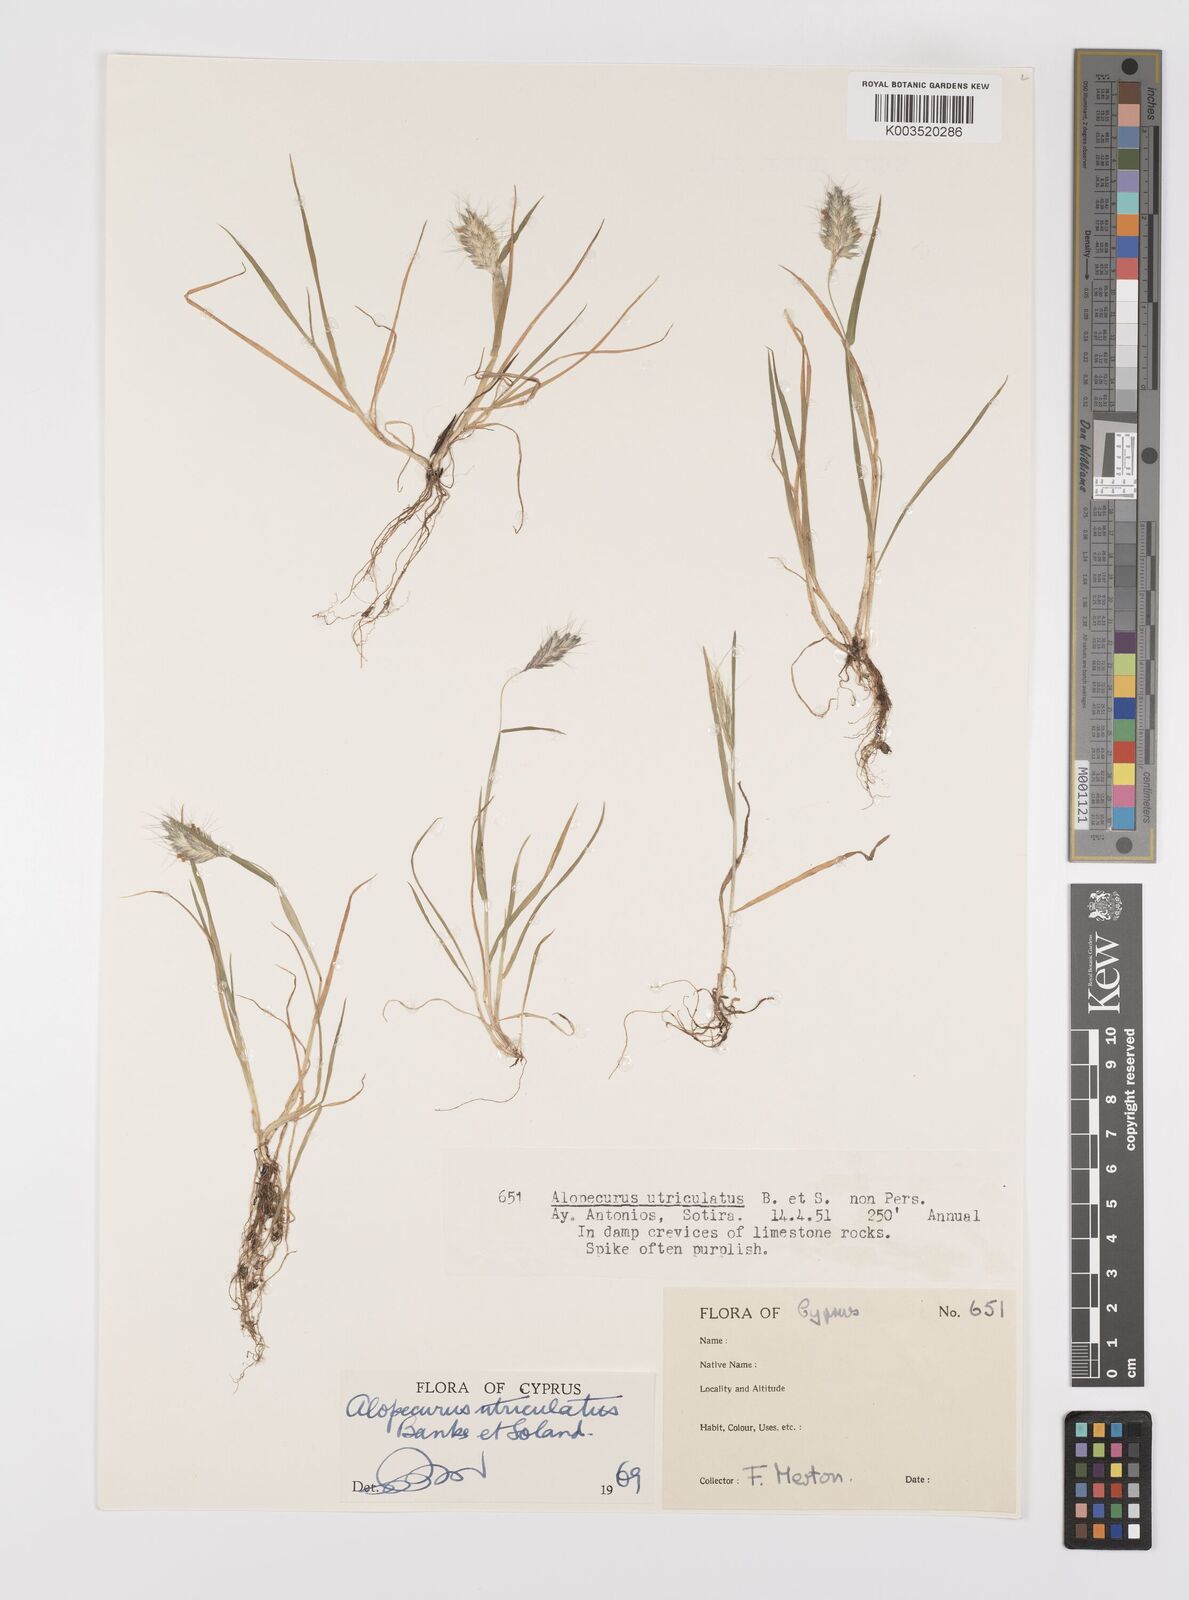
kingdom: Plantae
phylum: Tracheophyta
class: Liliopsida
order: Poales
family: Poaceae
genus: Alopecurus
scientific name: Alopecurus utriculatus
